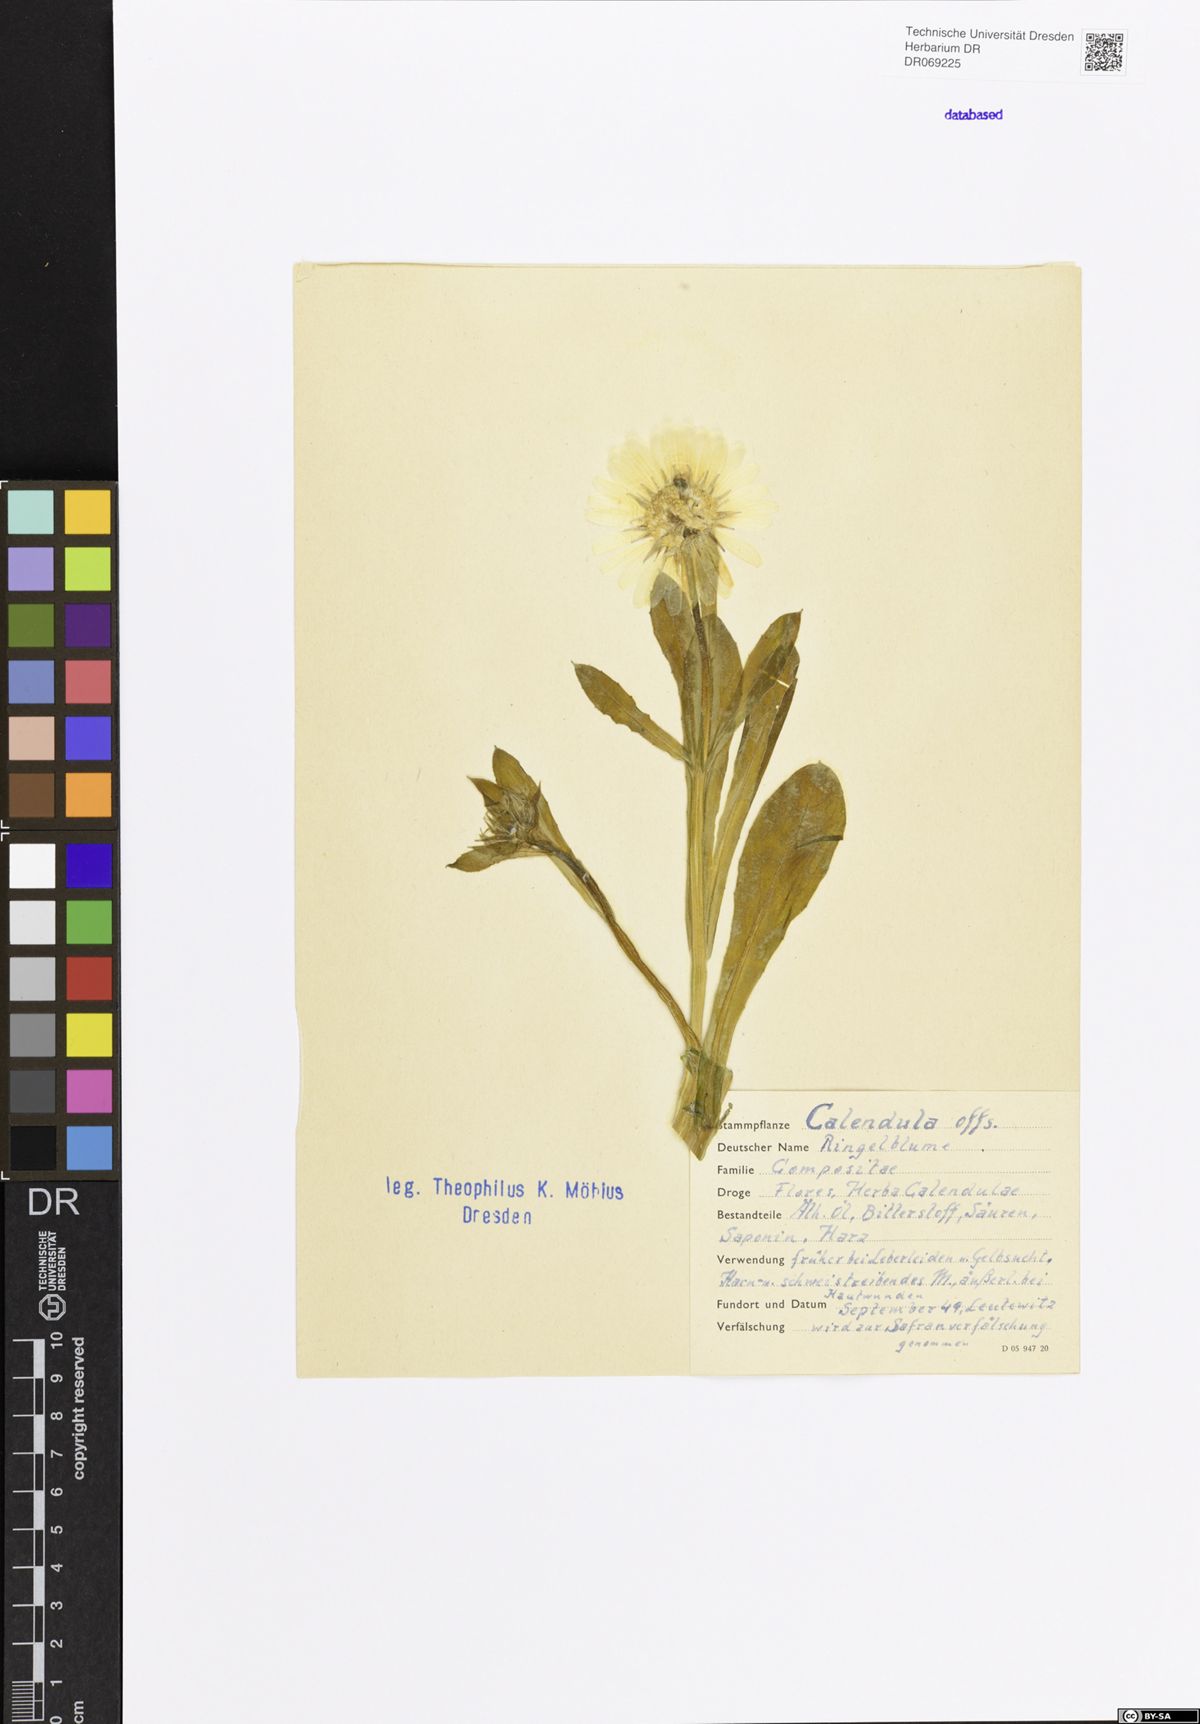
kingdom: Plantae
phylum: Tracheophyta
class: Magnoliopsida
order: Asterales
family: Asteraceae
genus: Calendula
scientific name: Calendula officinalis
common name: Pot marigold
